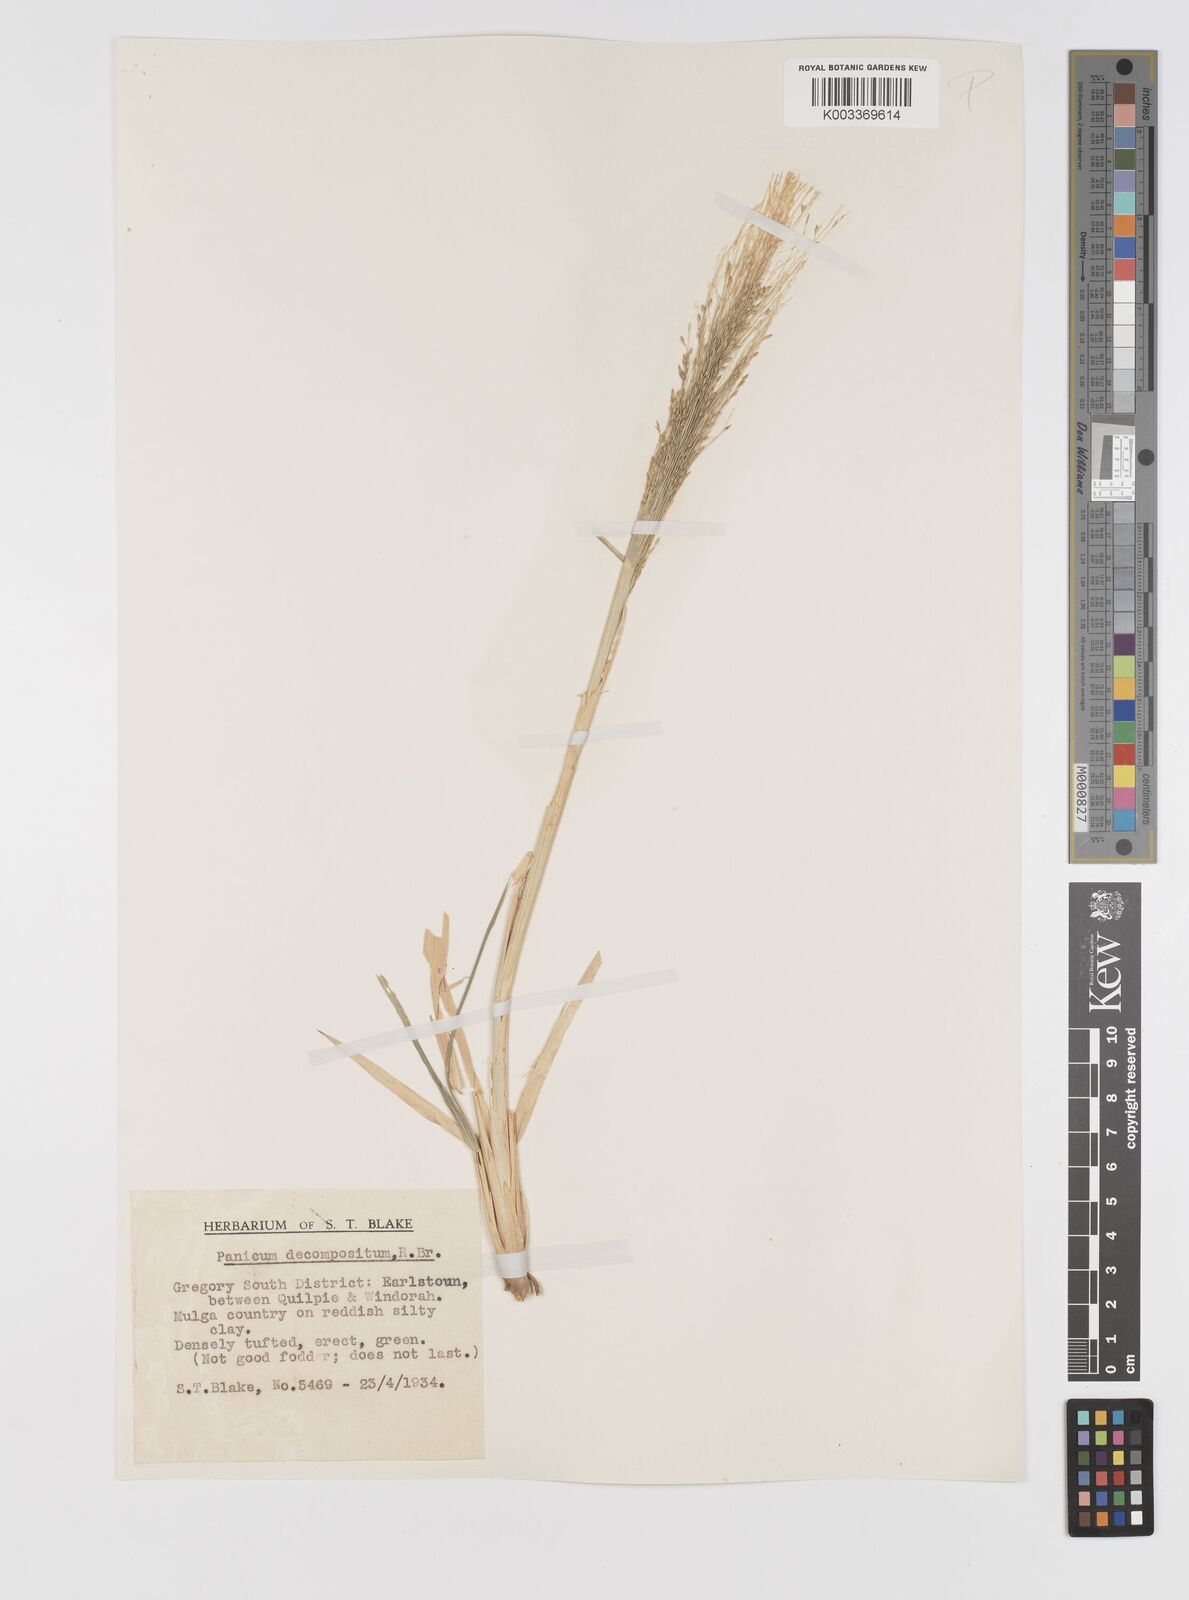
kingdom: Plantae
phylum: Tracheophyta
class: Liliopsida
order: Poales
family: Poaceae
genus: Panicum
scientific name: Panicum decompositum
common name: Australian millet
